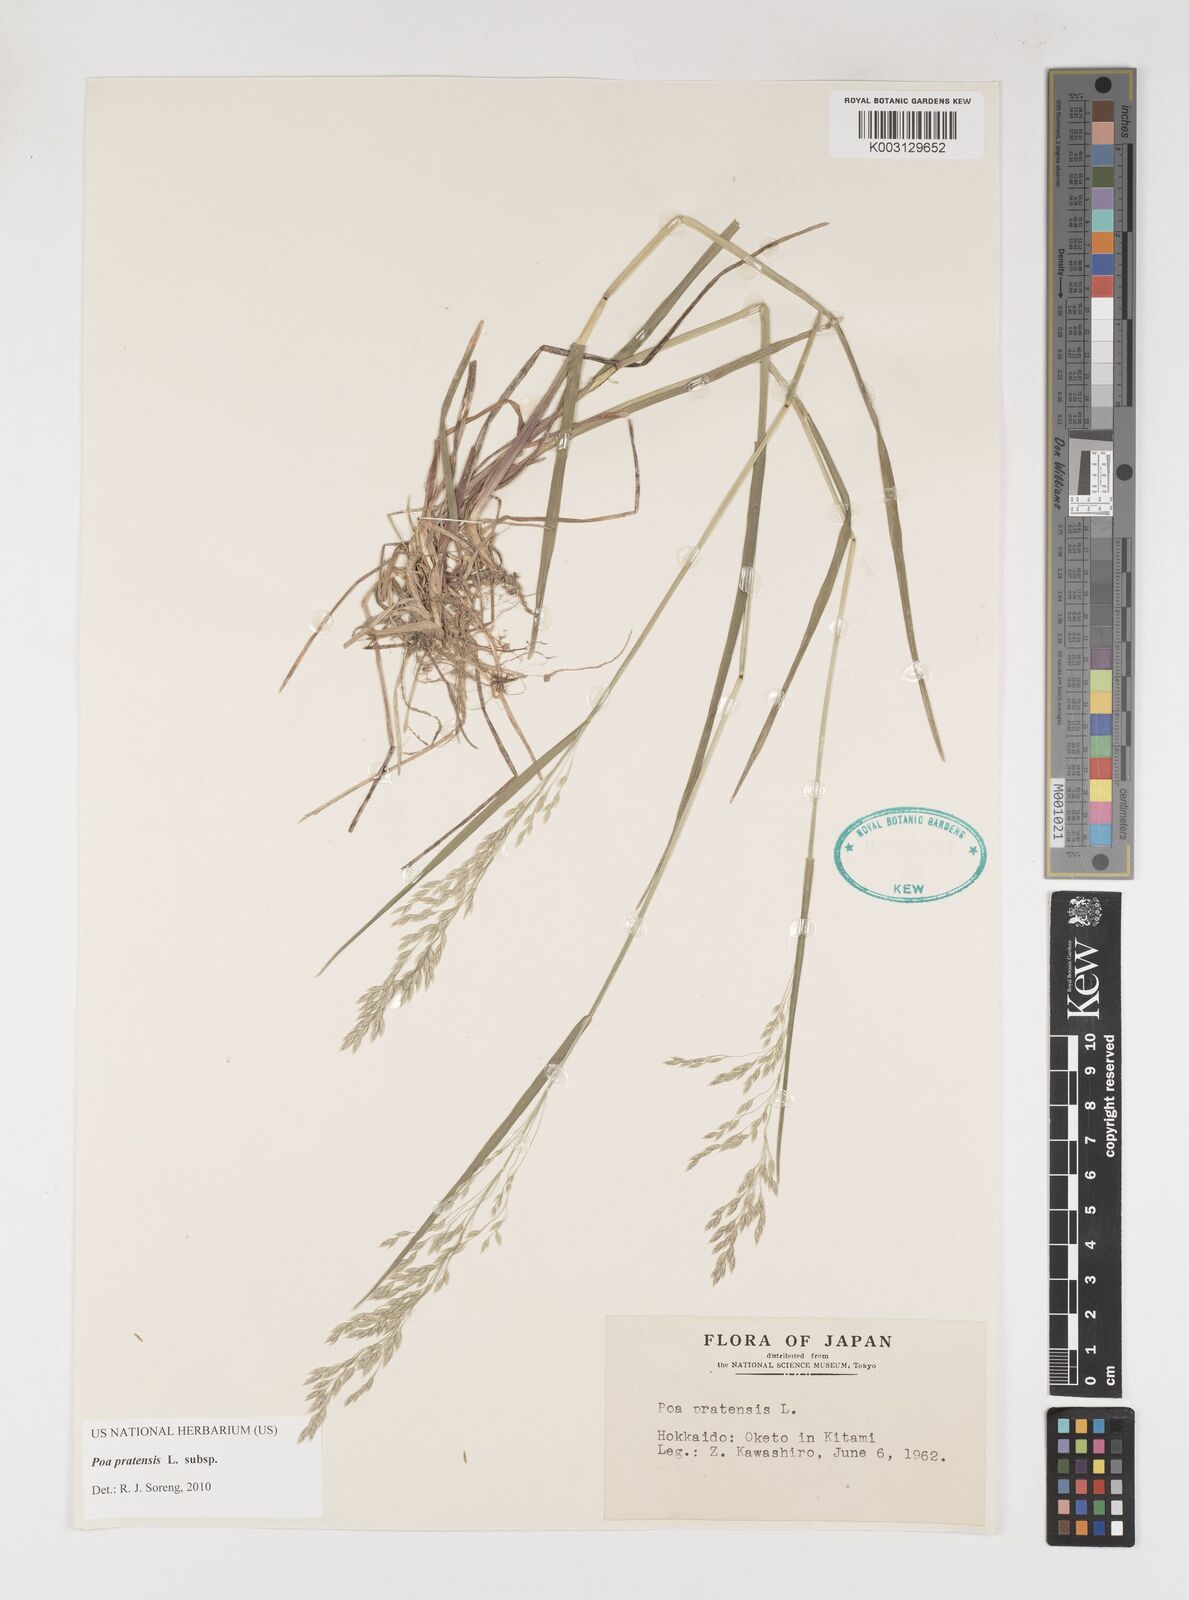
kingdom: Plantae
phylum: Tracheophyta
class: Liliopsida
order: Poales
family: Poaceae
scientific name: Poaceae
